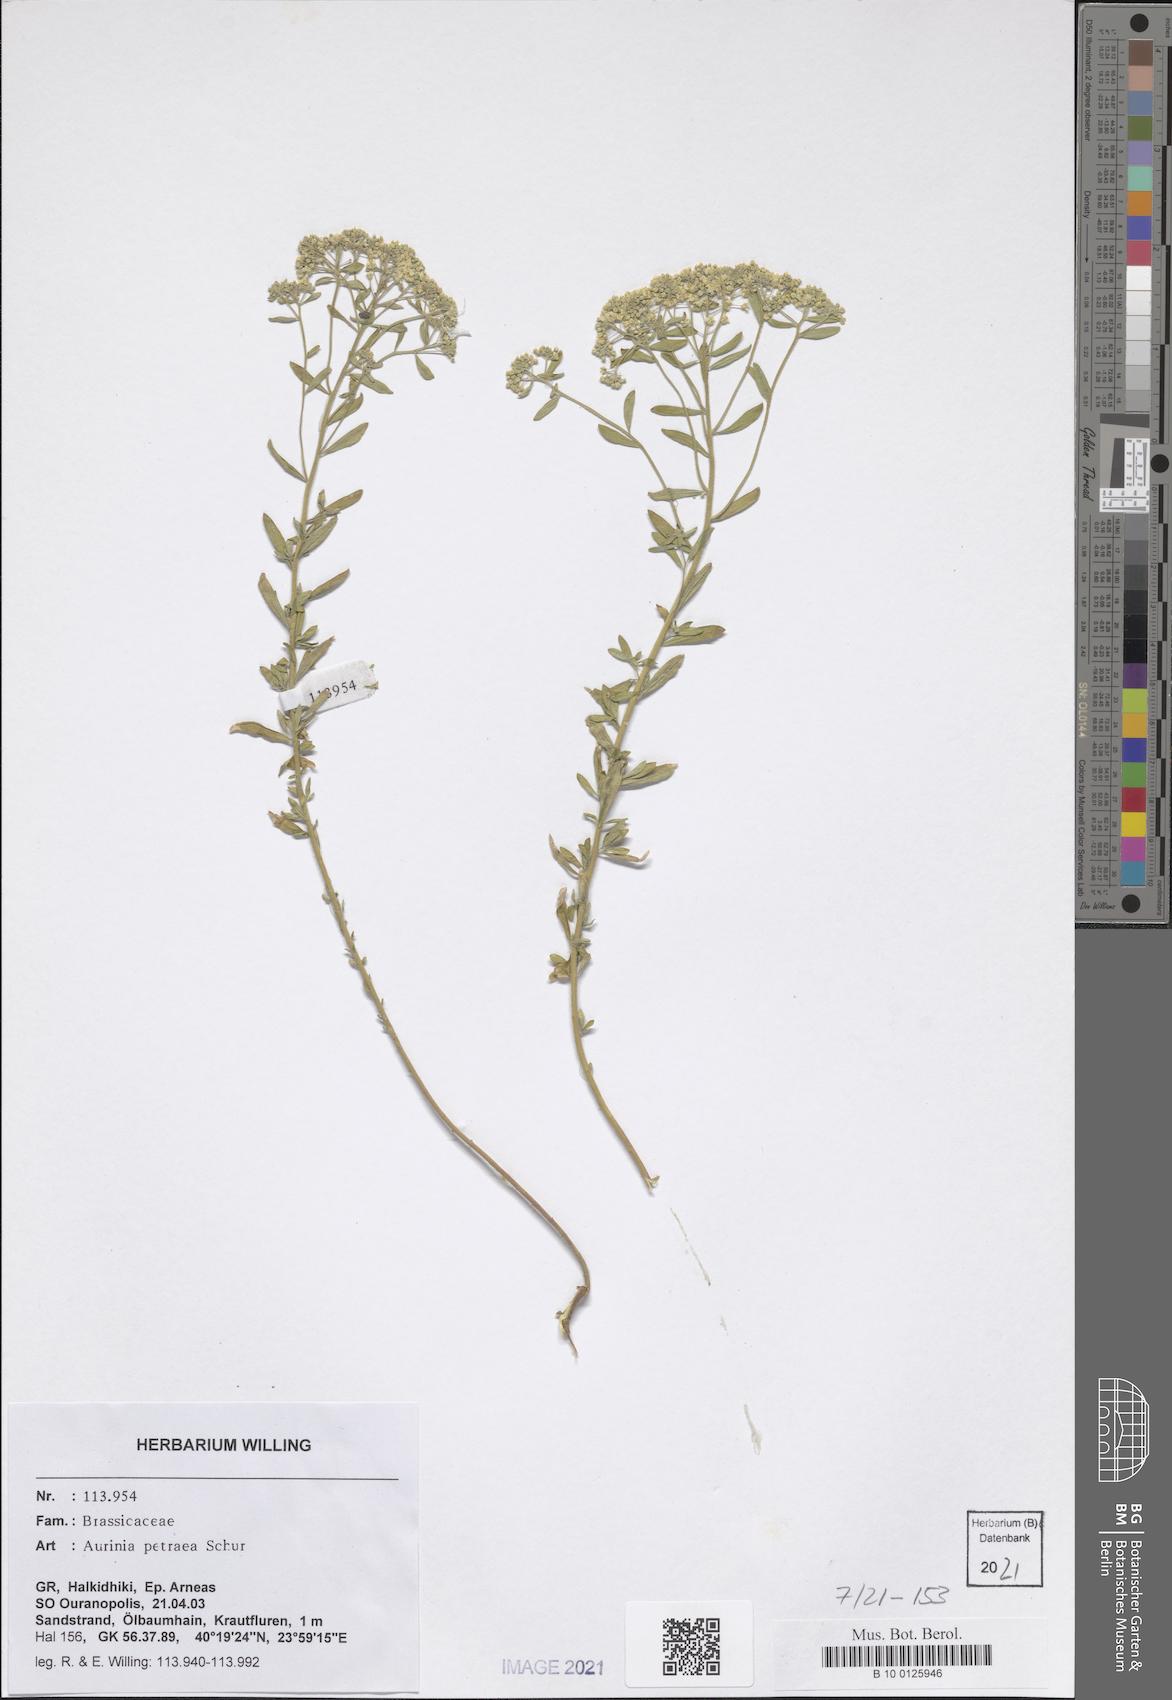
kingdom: Plantae
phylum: Tracheophyta
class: Magnoliopsida
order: Brassicales
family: Brassicaceae
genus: Aurinia
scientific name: Aurinia petraea
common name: Goldentuft
